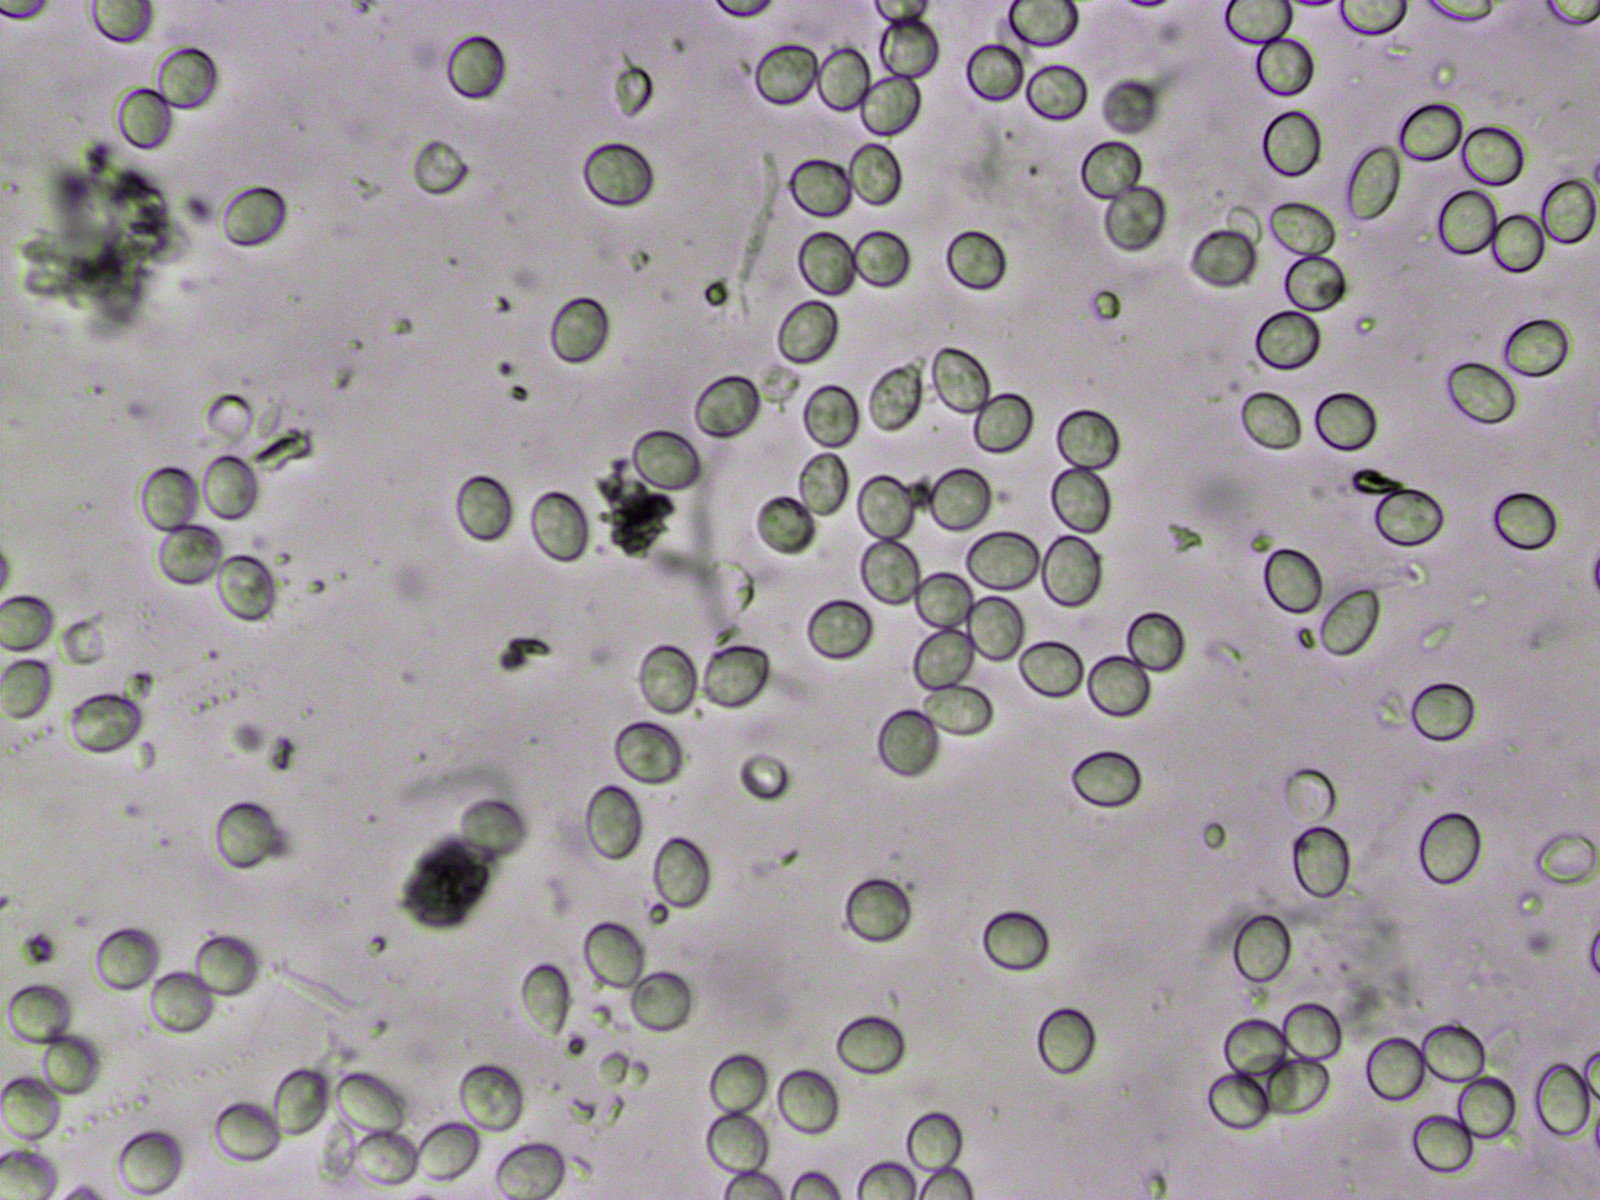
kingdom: Fungi
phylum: Ascomycota
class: Sordariomycetes
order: Diaporthales
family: Gnomoniaceae
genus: Plagiostoma
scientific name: Plagiostoma populinum
